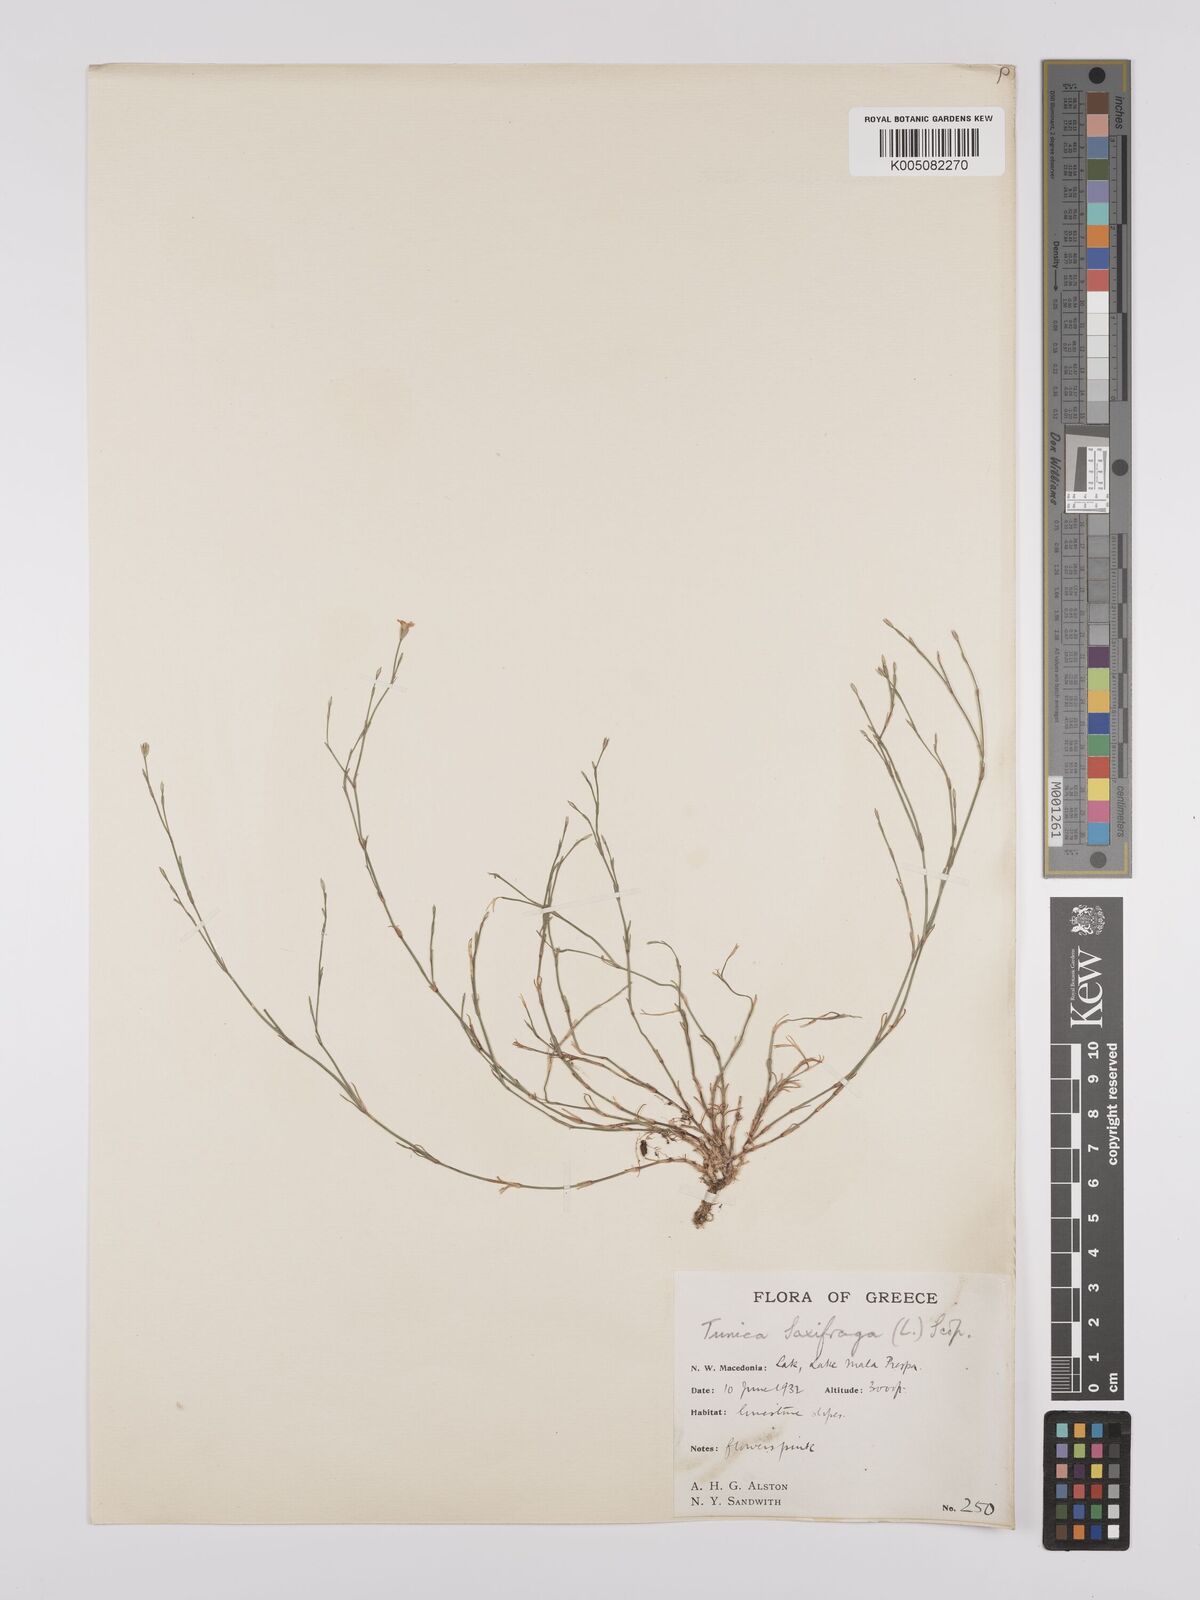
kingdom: Plantae
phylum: Tracheophyta
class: Magnoliopsida
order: Caryophyllales
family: Caryophyllaceae
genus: Petrorhagia
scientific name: Petrorhagia saxifraga
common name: Tunicflower
